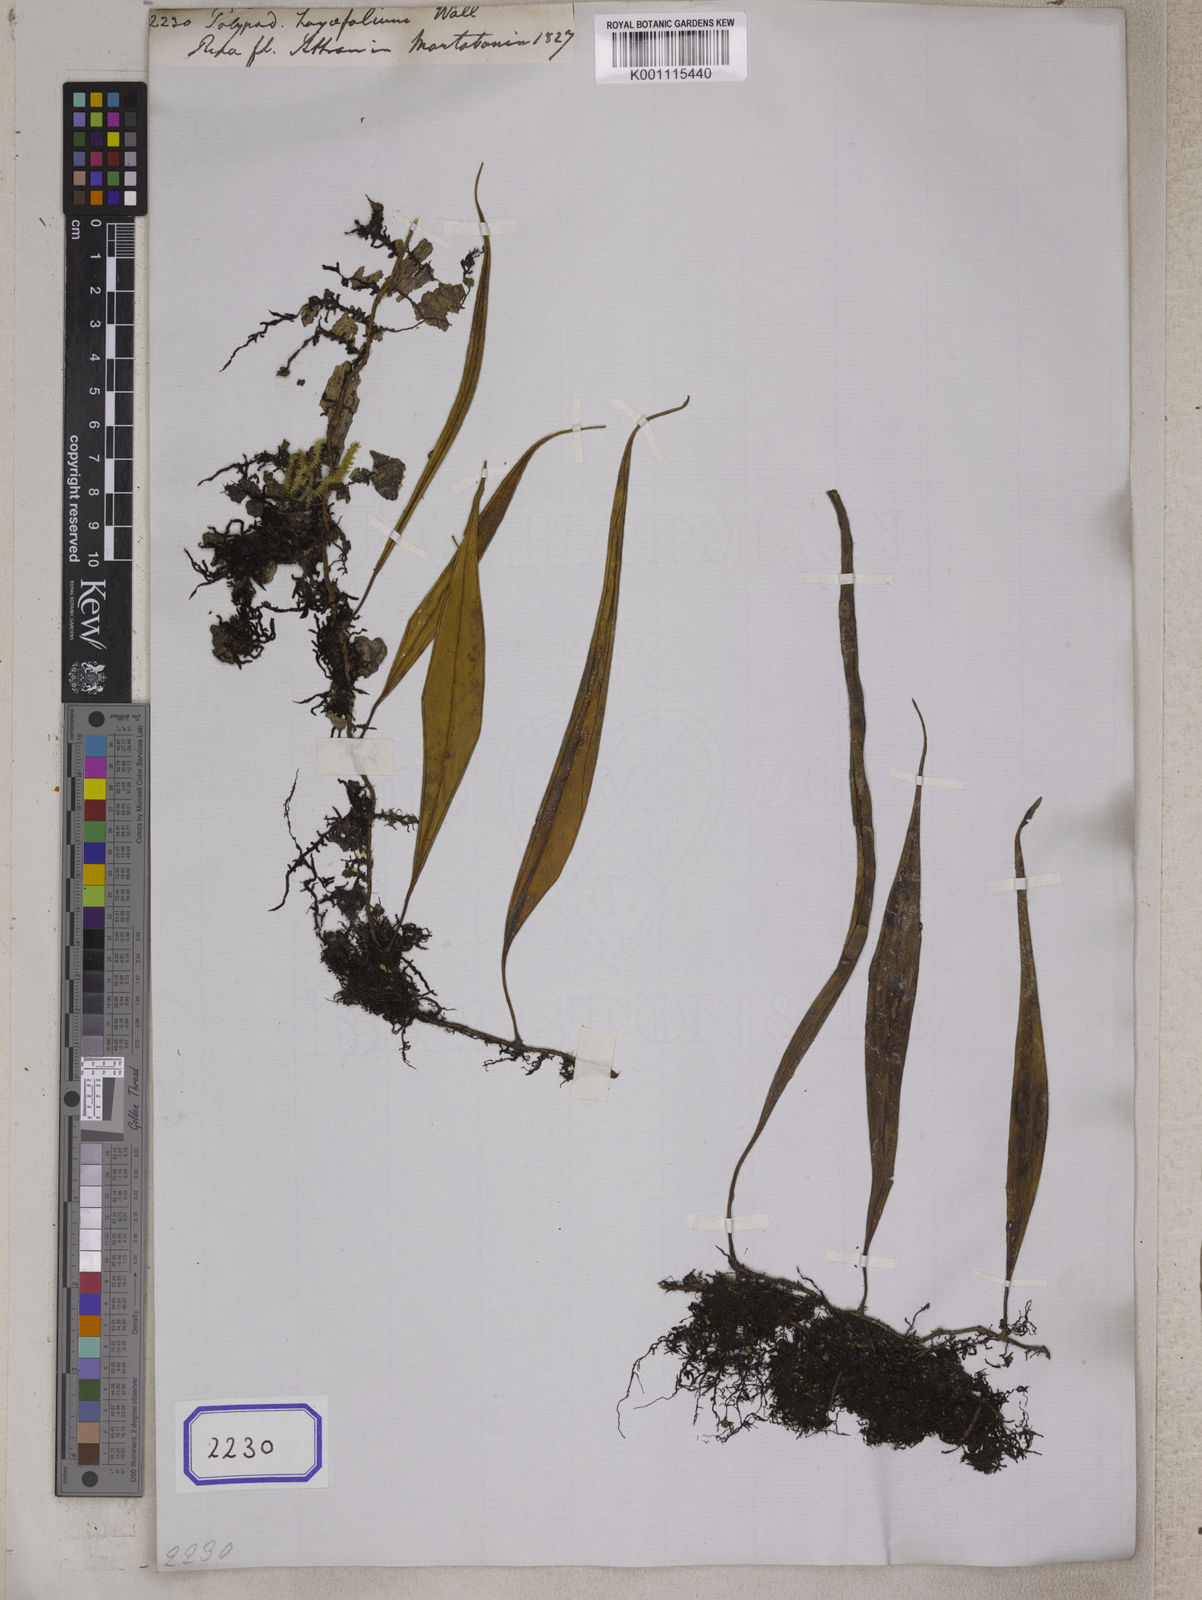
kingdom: Plantae
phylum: Tracheophyta
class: Polypodiopsida
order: Polypodiales
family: Polypodiaceae
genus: Polypodium
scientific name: Polypodium hoyifolium
